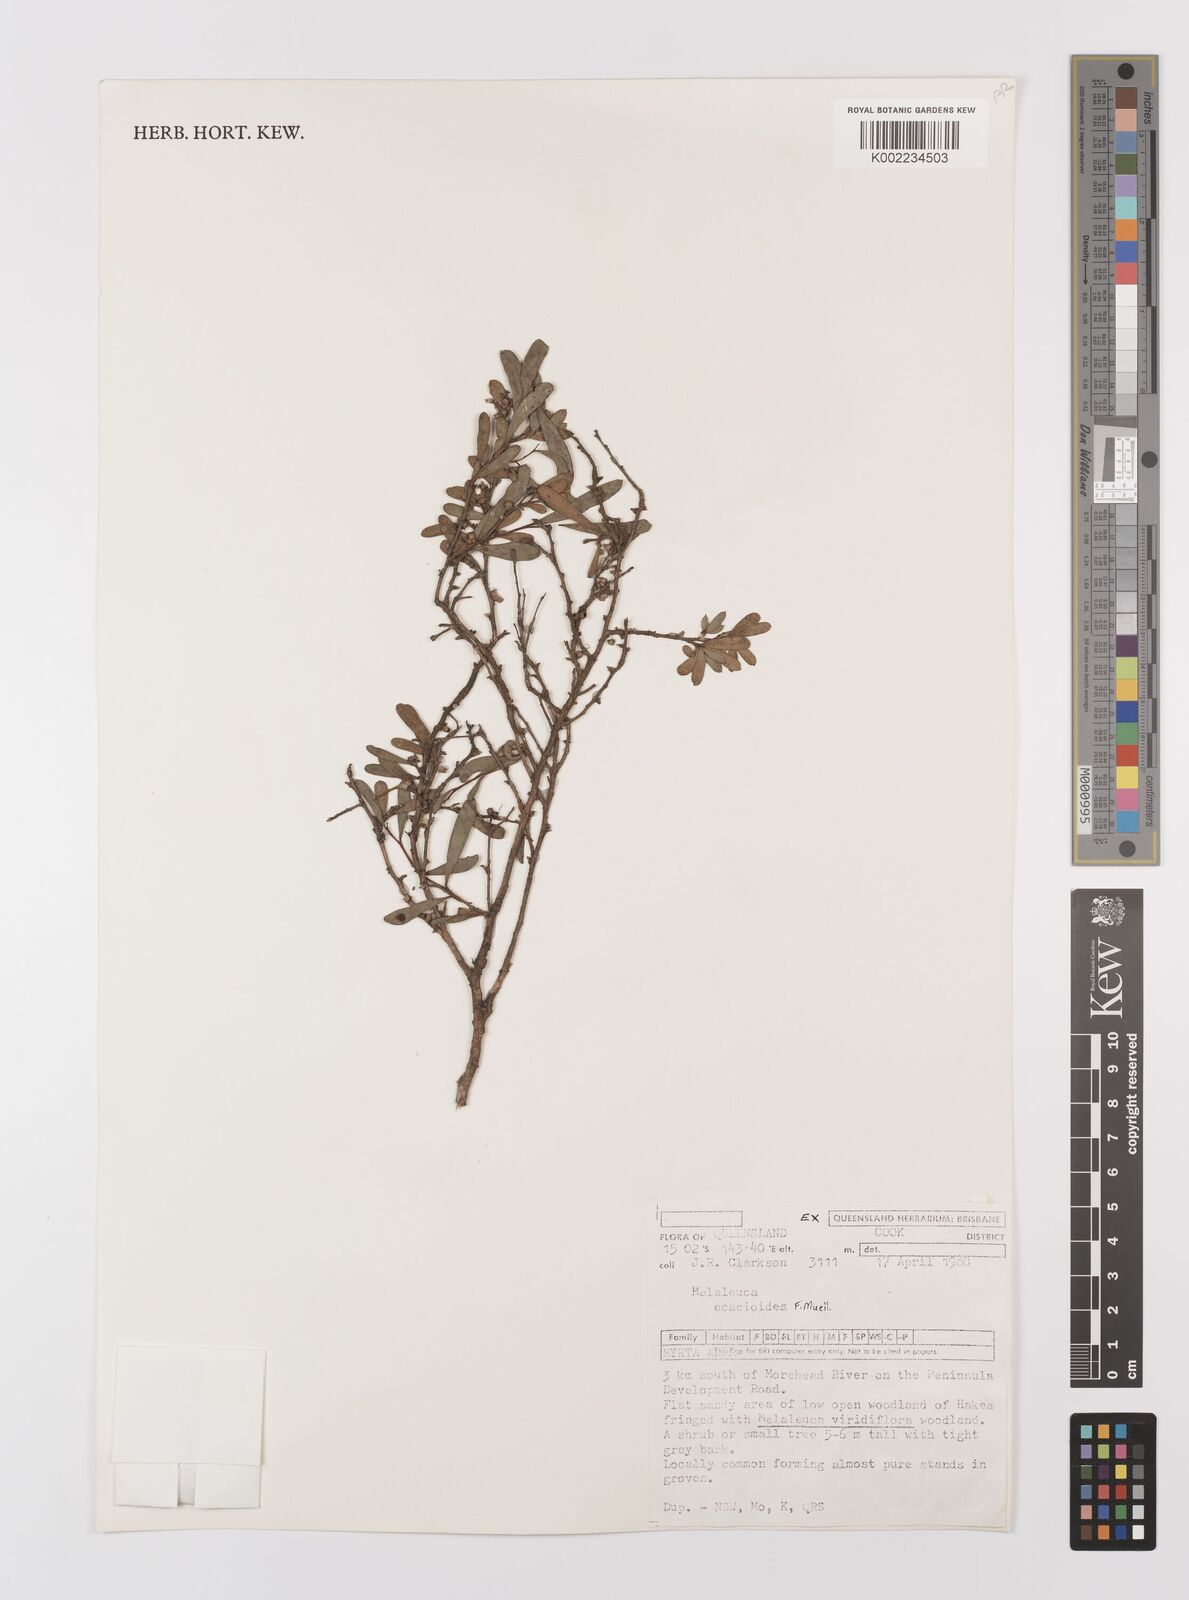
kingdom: Plantae
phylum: Tracheophyta
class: Magnoliopsida
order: Myrtales
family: Myrtaceae
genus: Melaleuca
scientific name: Melaleuca acacioides
